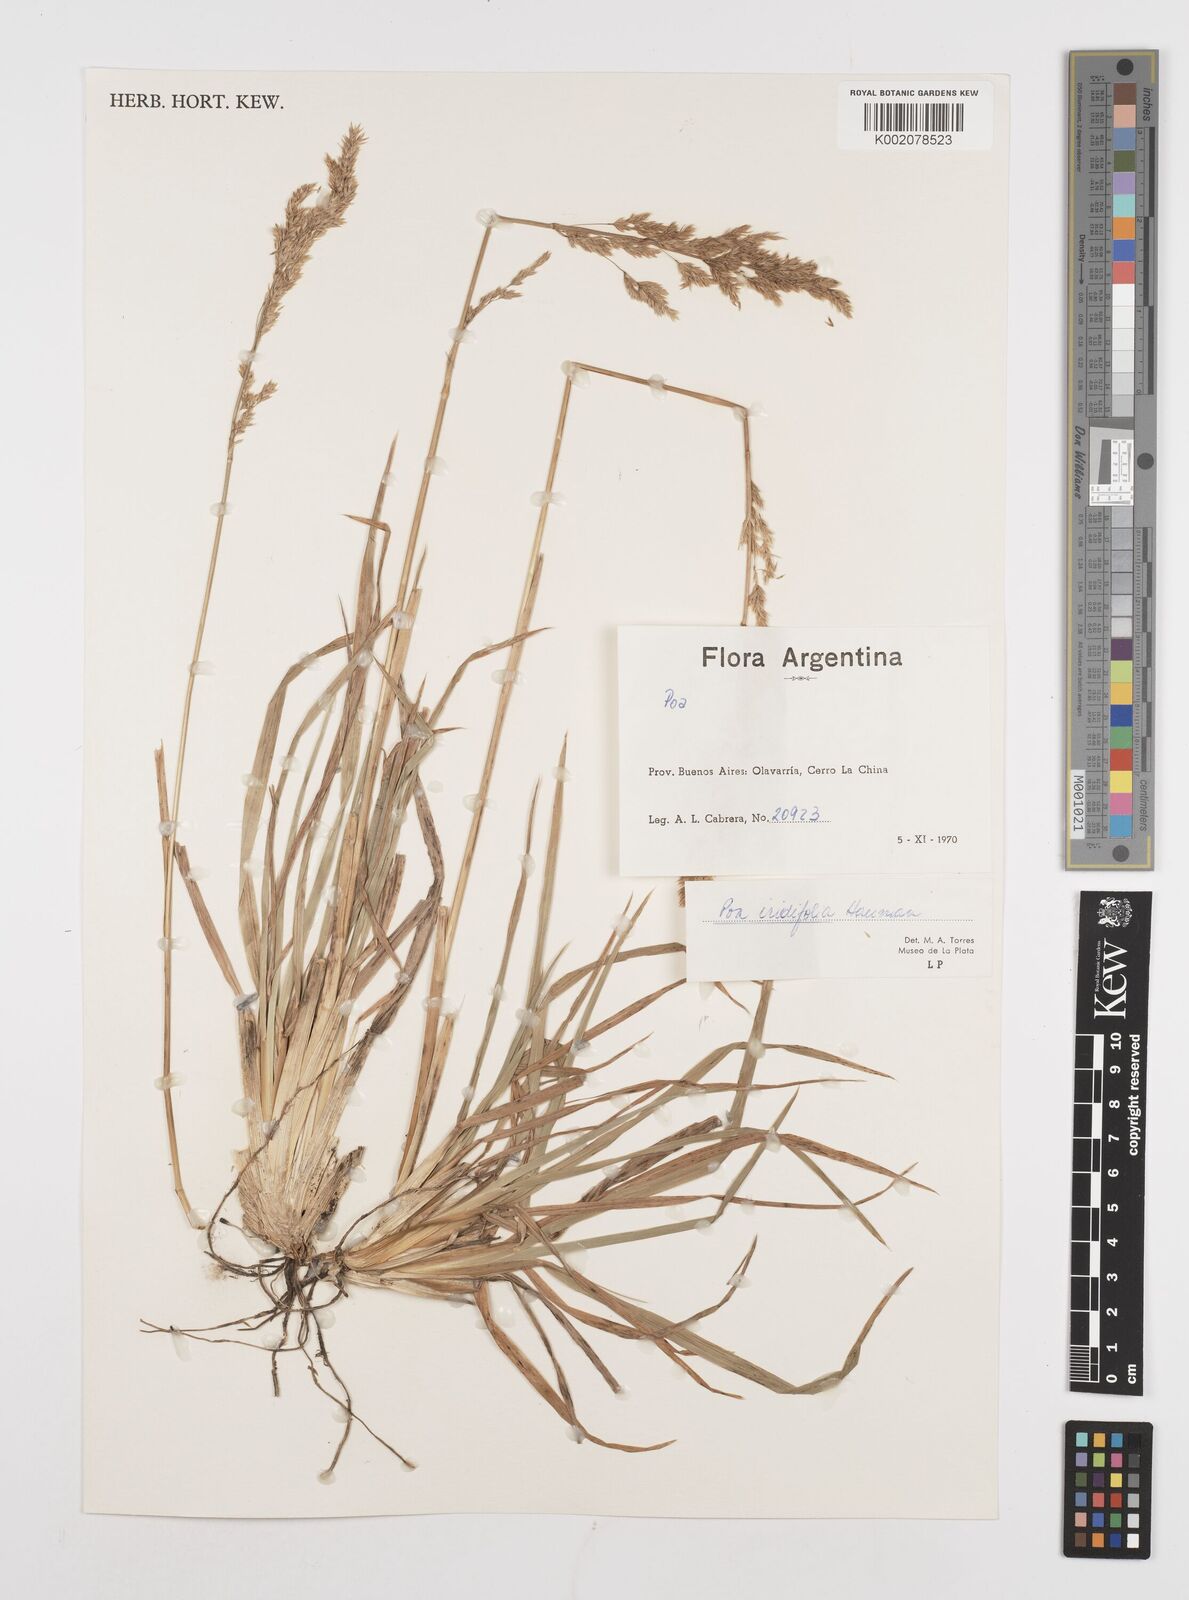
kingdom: Plantae
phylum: Tracheophyta
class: Liliopsida
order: Poales
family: Poaceae
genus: Poa
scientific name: Poa iridifolia
